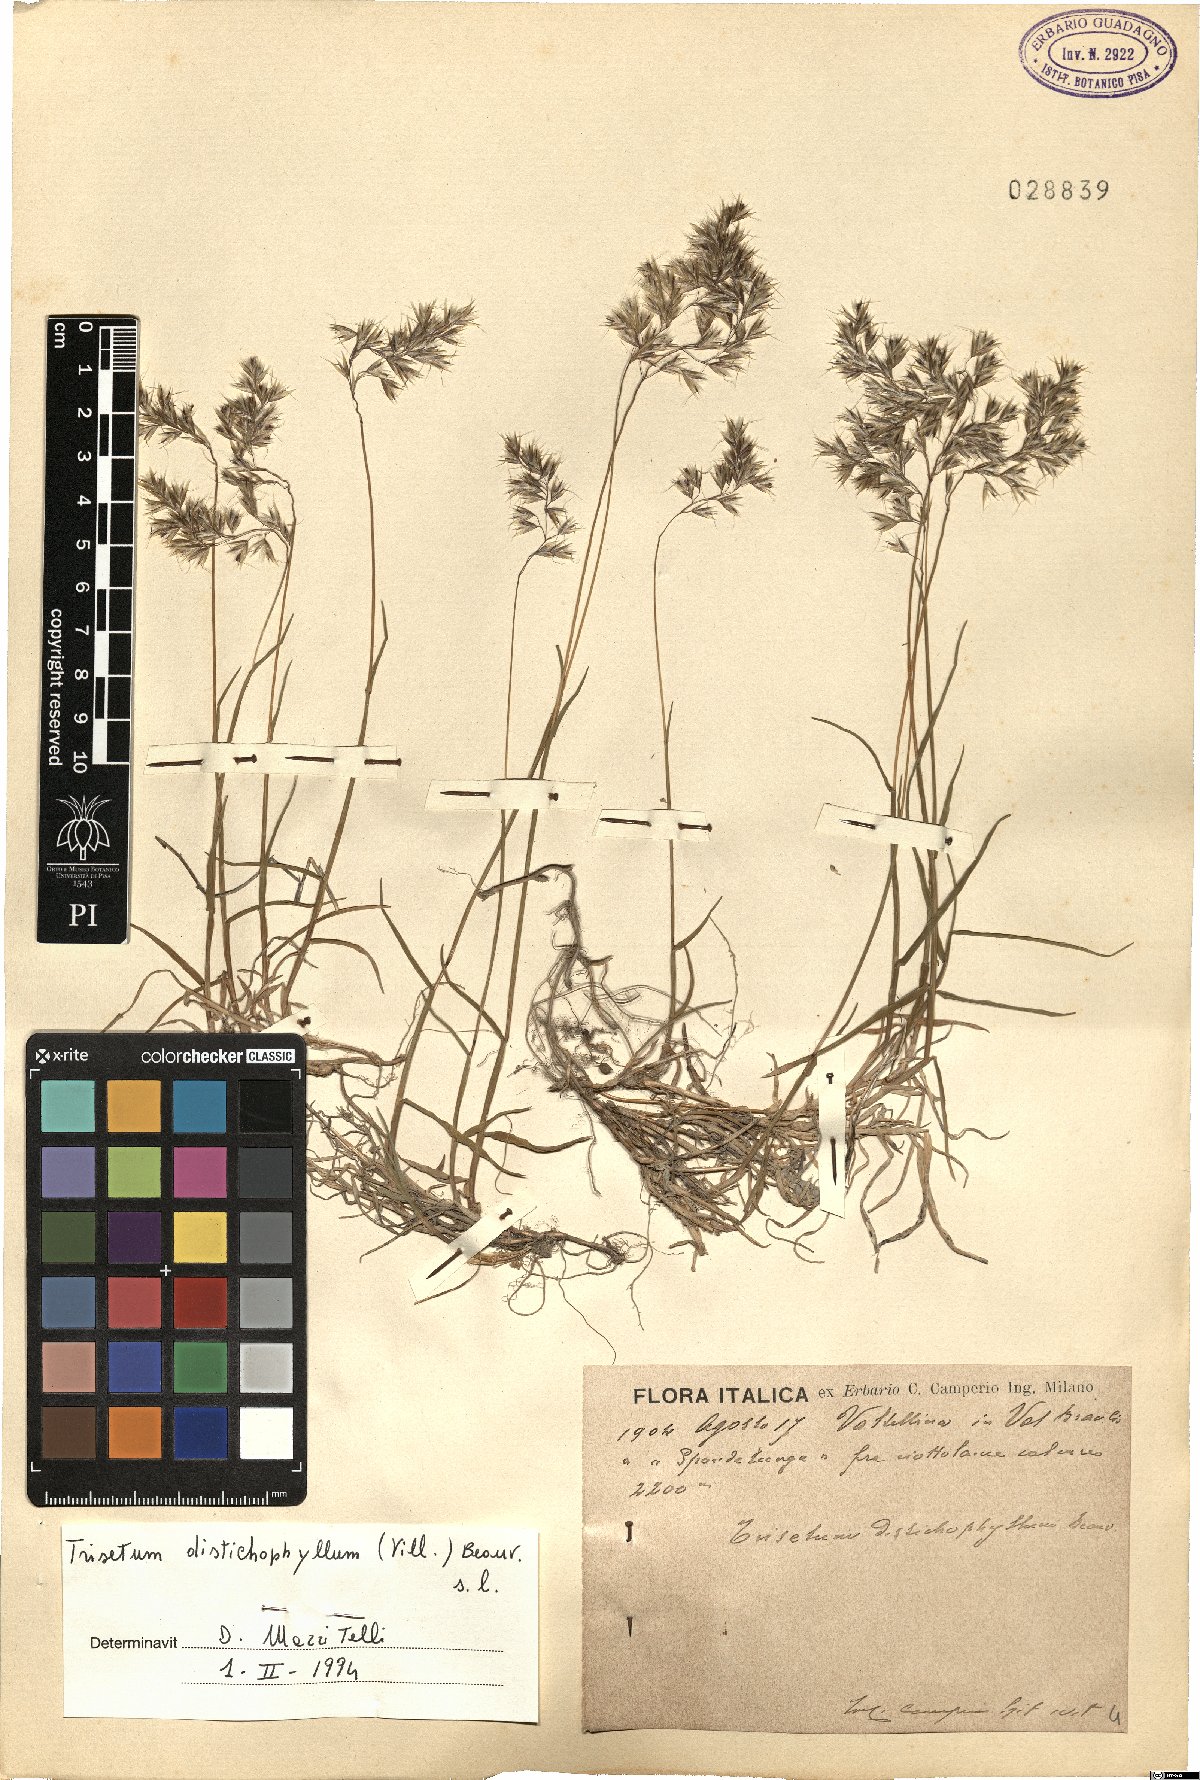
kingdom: Plantae
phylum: Tracheophyta
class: Liliopsida
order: Poales
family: Poaceae
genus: Acrospelion
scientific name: Acrospelion distichophyllum
